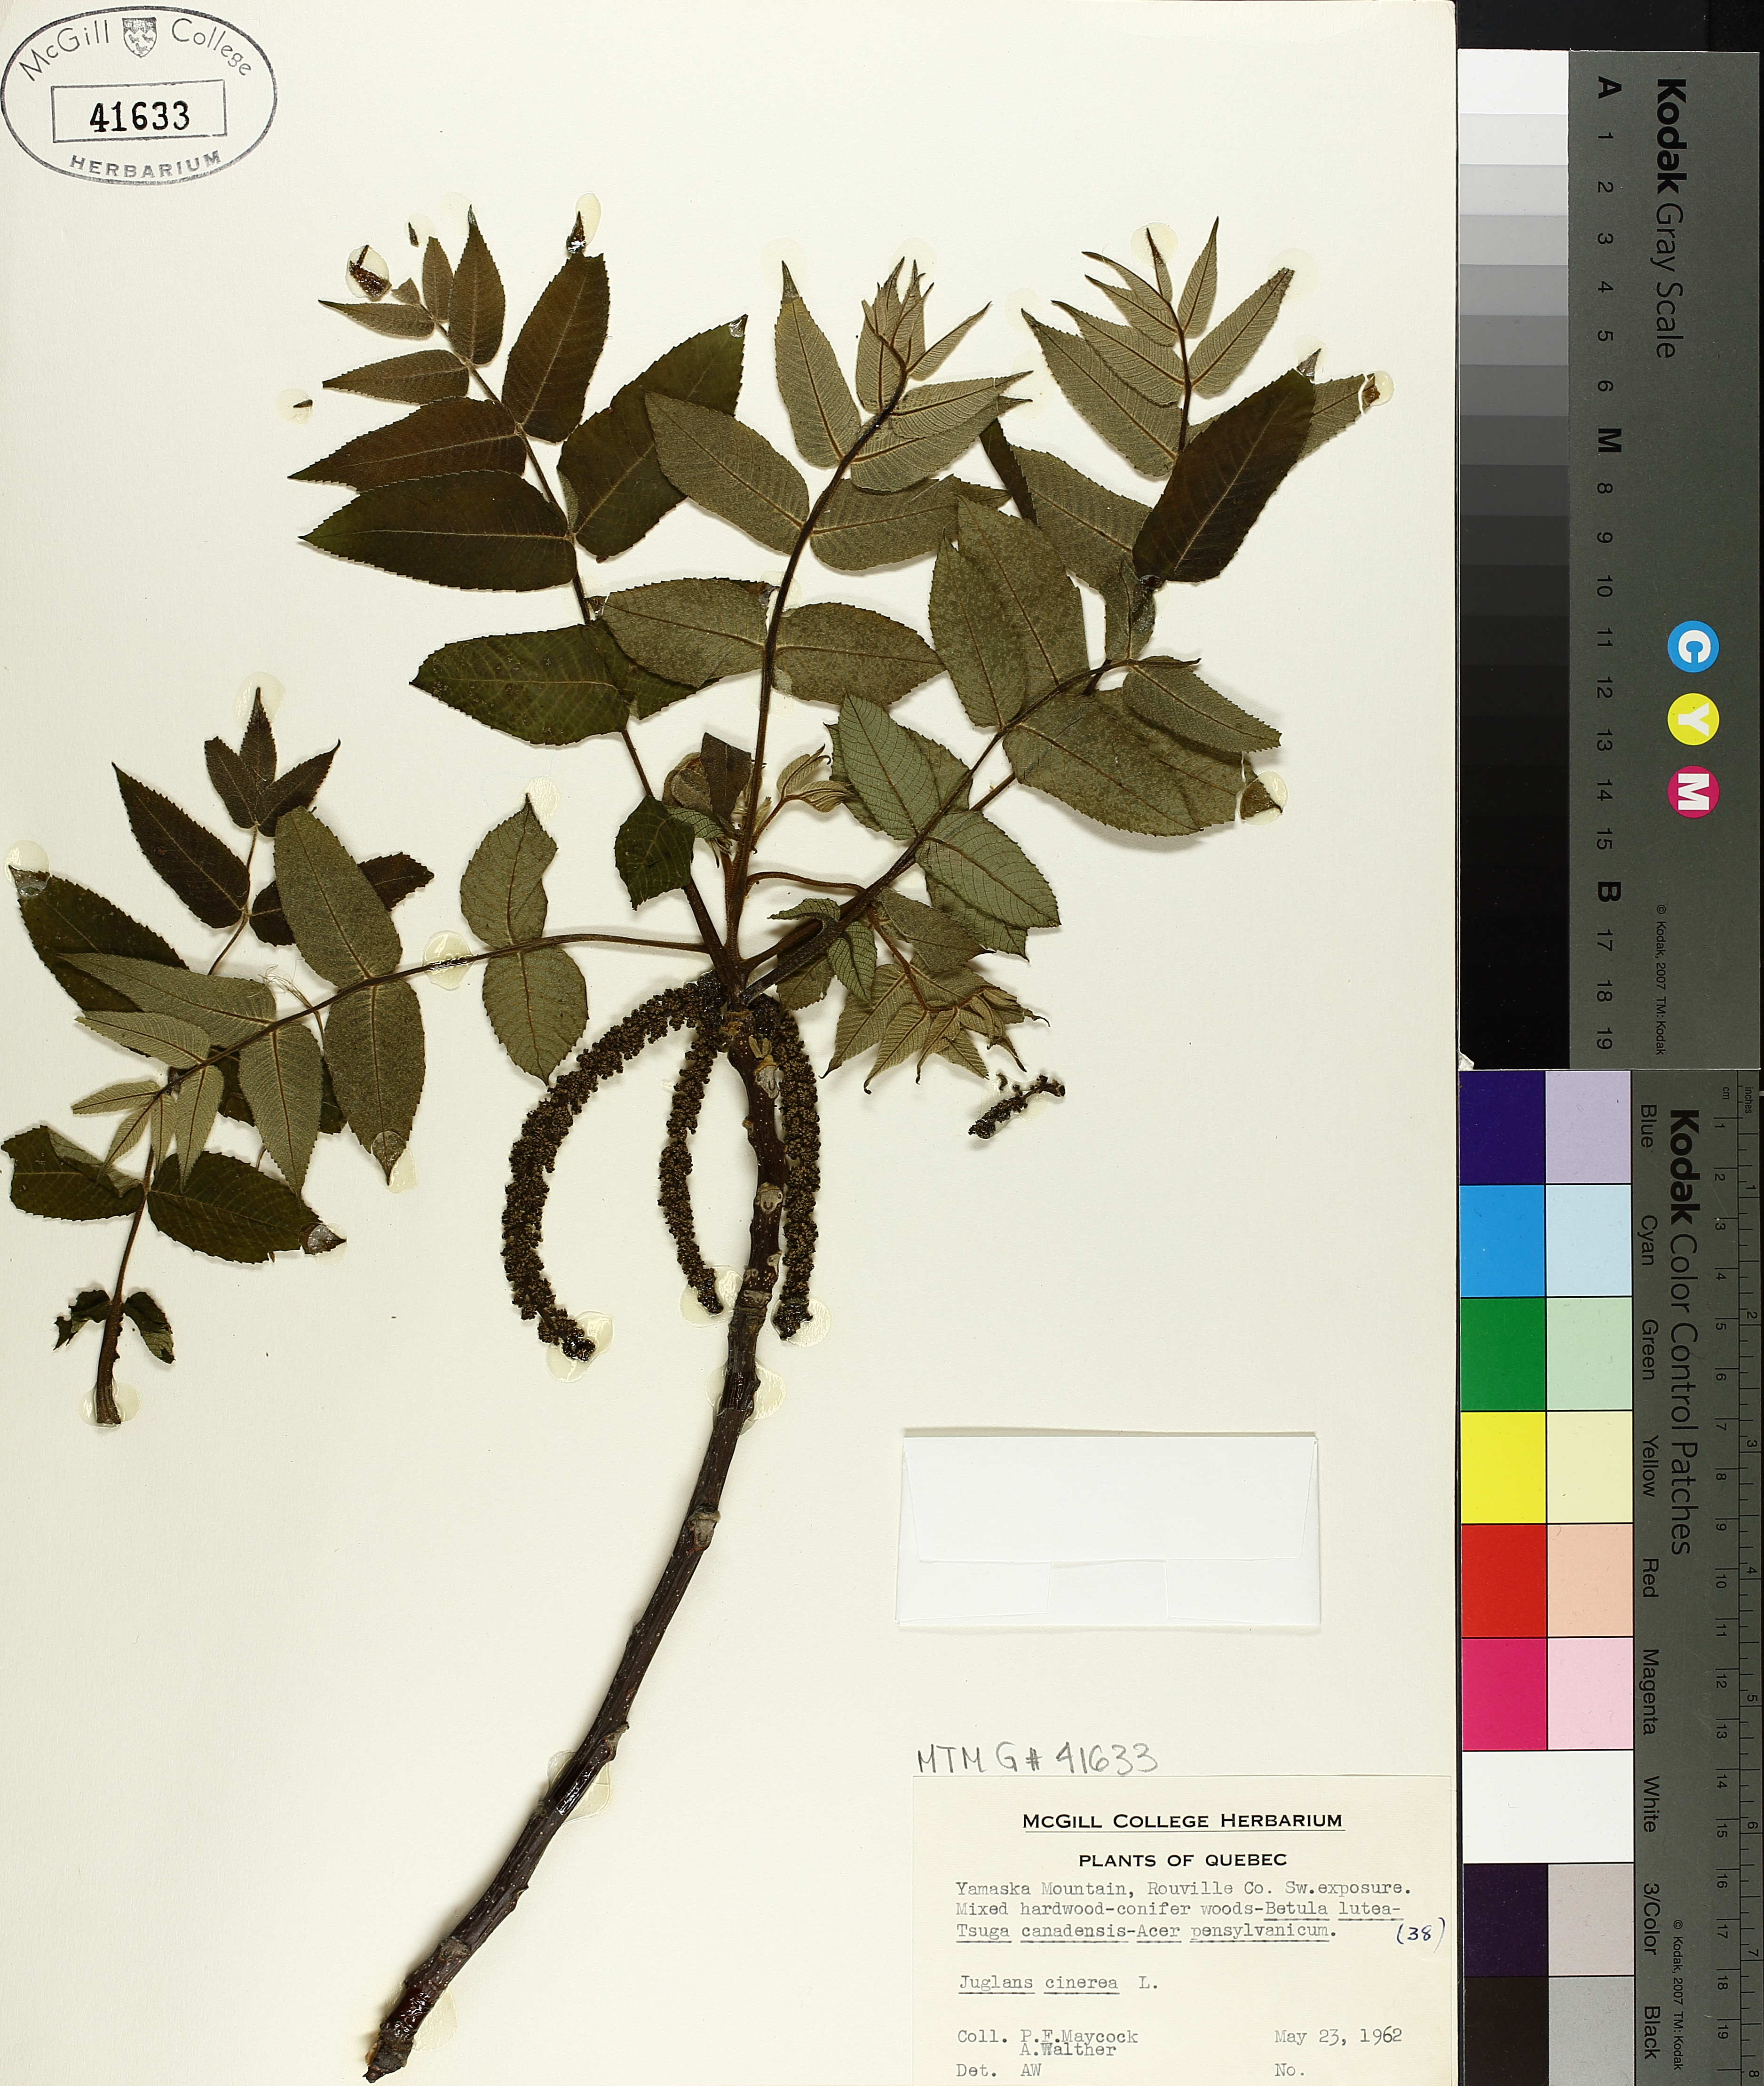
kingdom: Plantae
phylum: Tracheophyta
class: Magnoliopsida
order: Fagales
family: Juglandaceae
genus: Juglans
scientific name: Juglans cinerea
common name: Butternut
